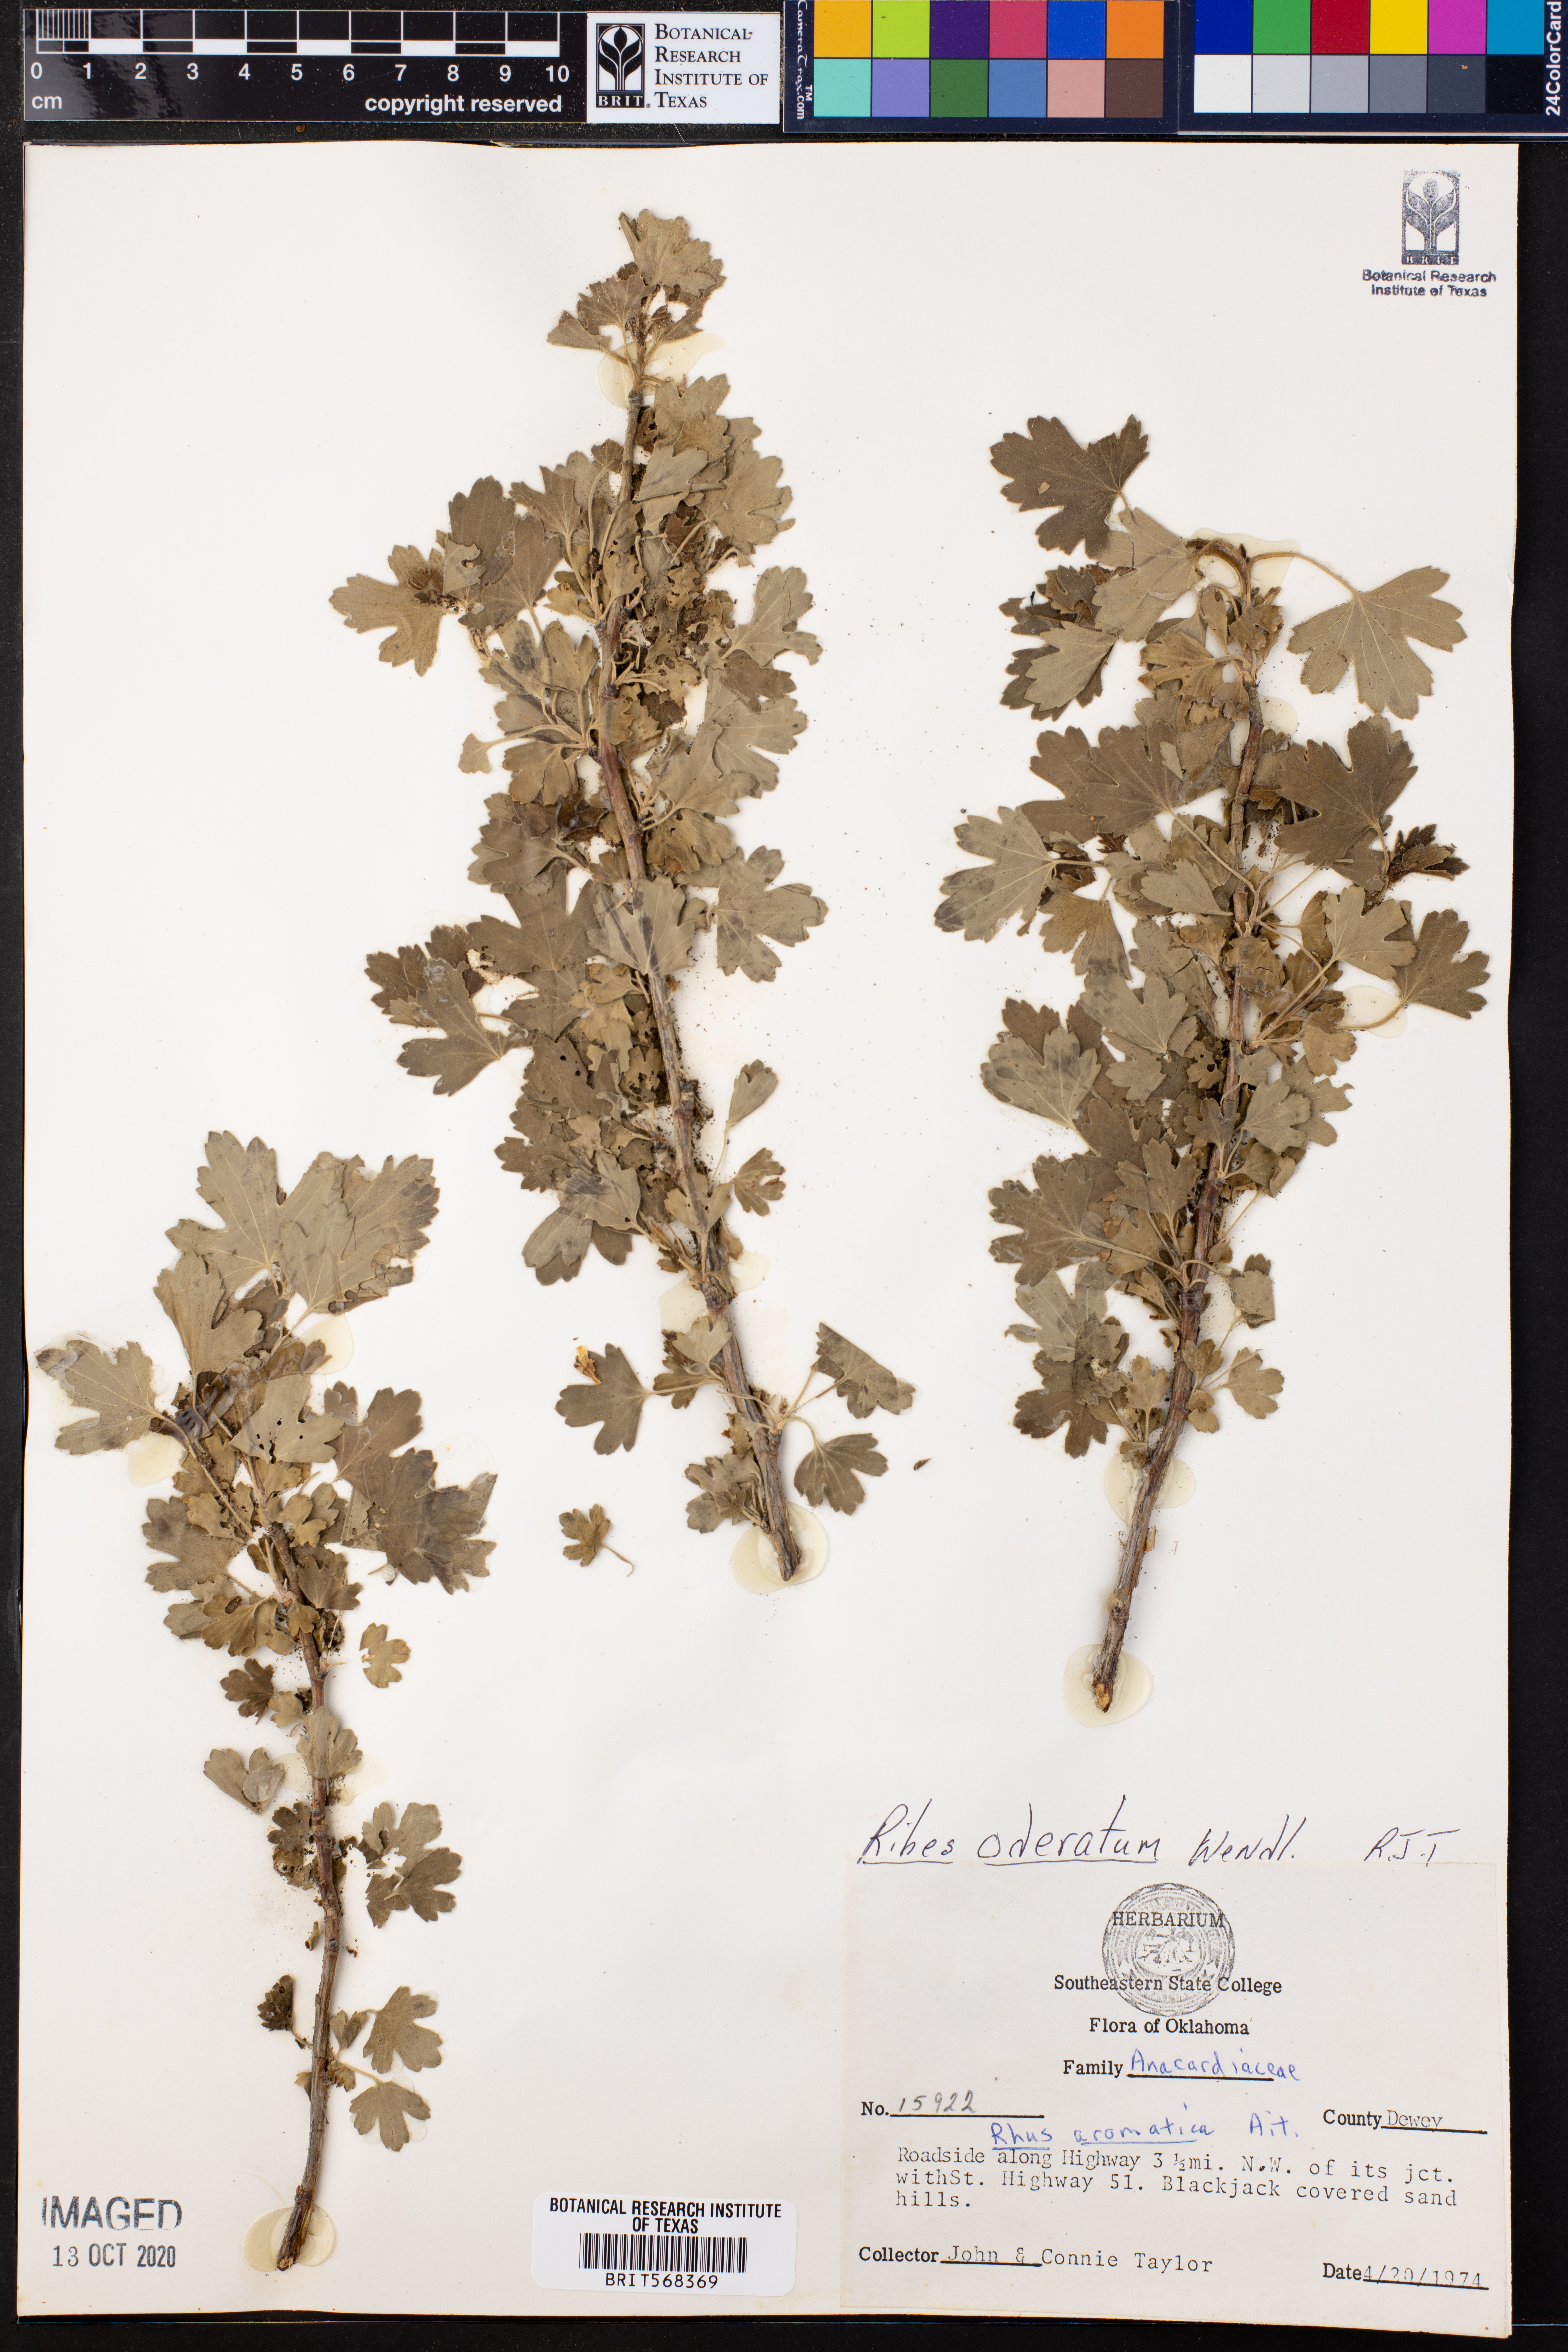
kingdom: Plantae
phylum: Tracheophyta
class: Magnoliopsida
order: Saxifragales
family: Grossulariaceae
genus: Ribes
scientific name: Ribes aureum
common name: Golden currant
